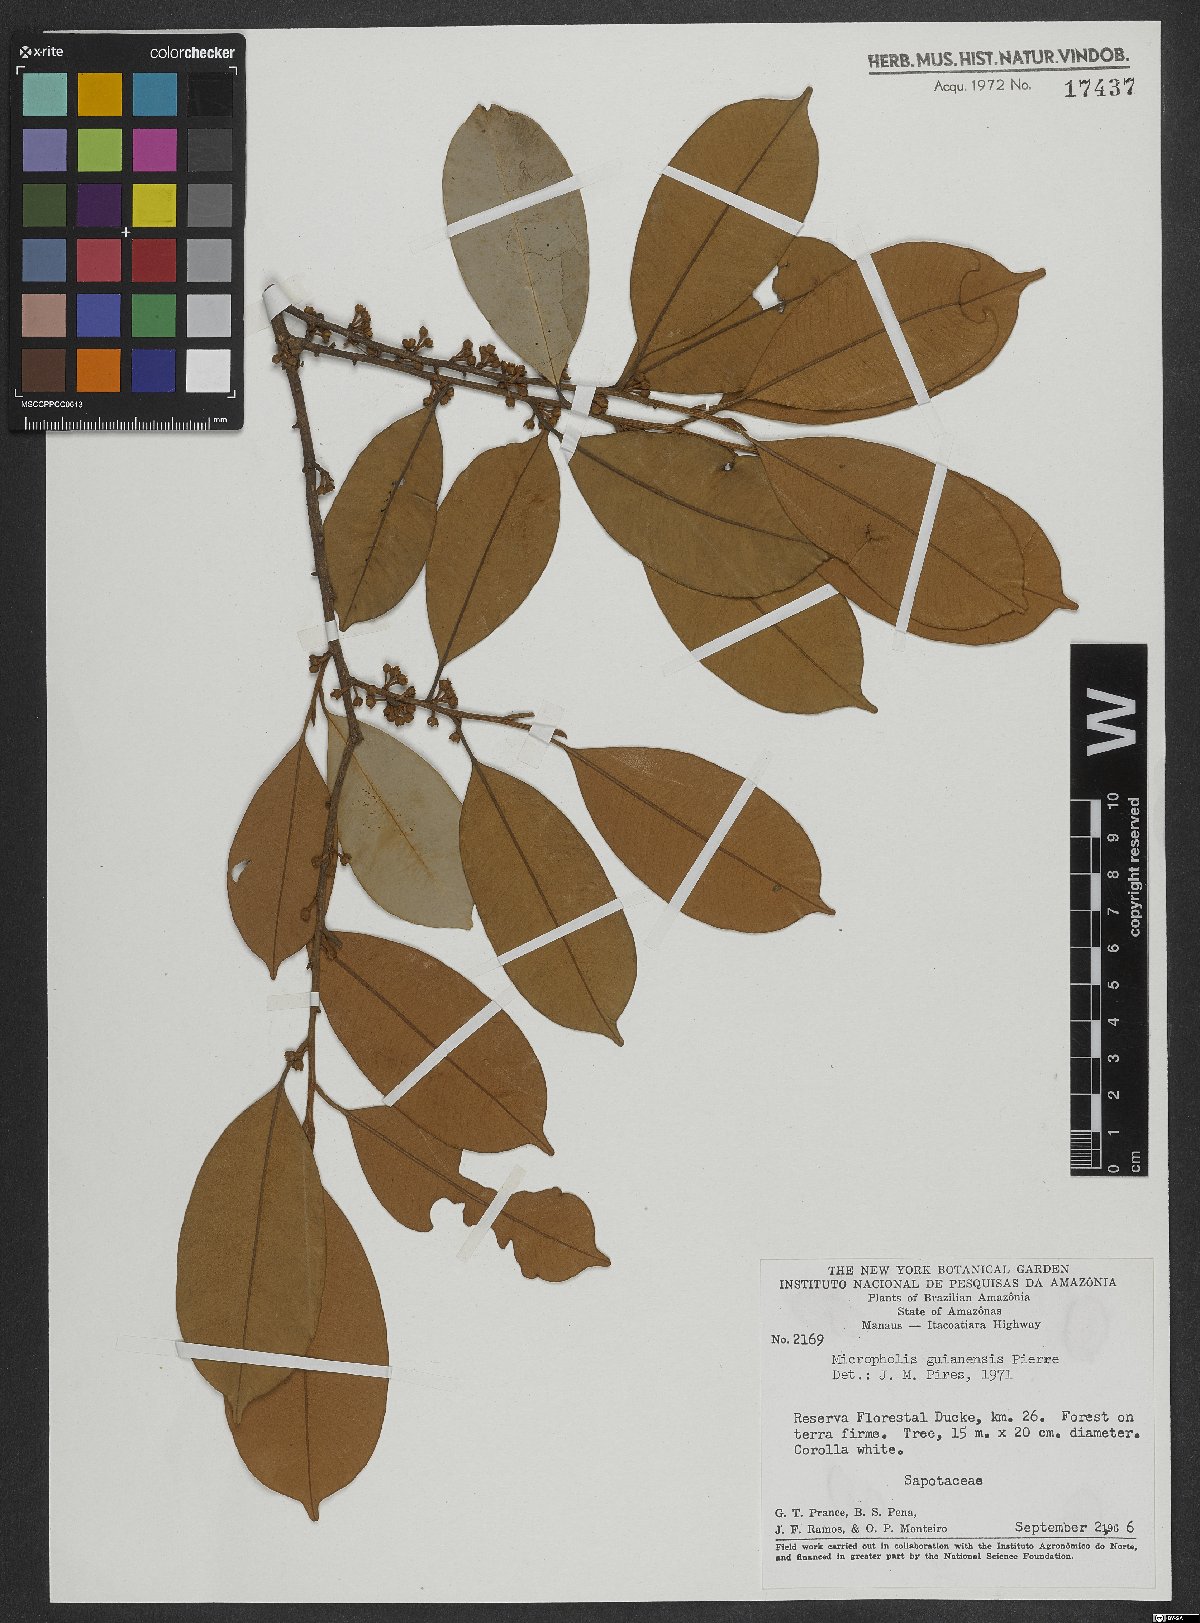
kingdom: Plantae
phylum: Tracheophyta
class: Magnoliopsida
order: Ericales
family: Sapotaceae
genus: Micropholis
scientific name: Micropholis guyanensis
